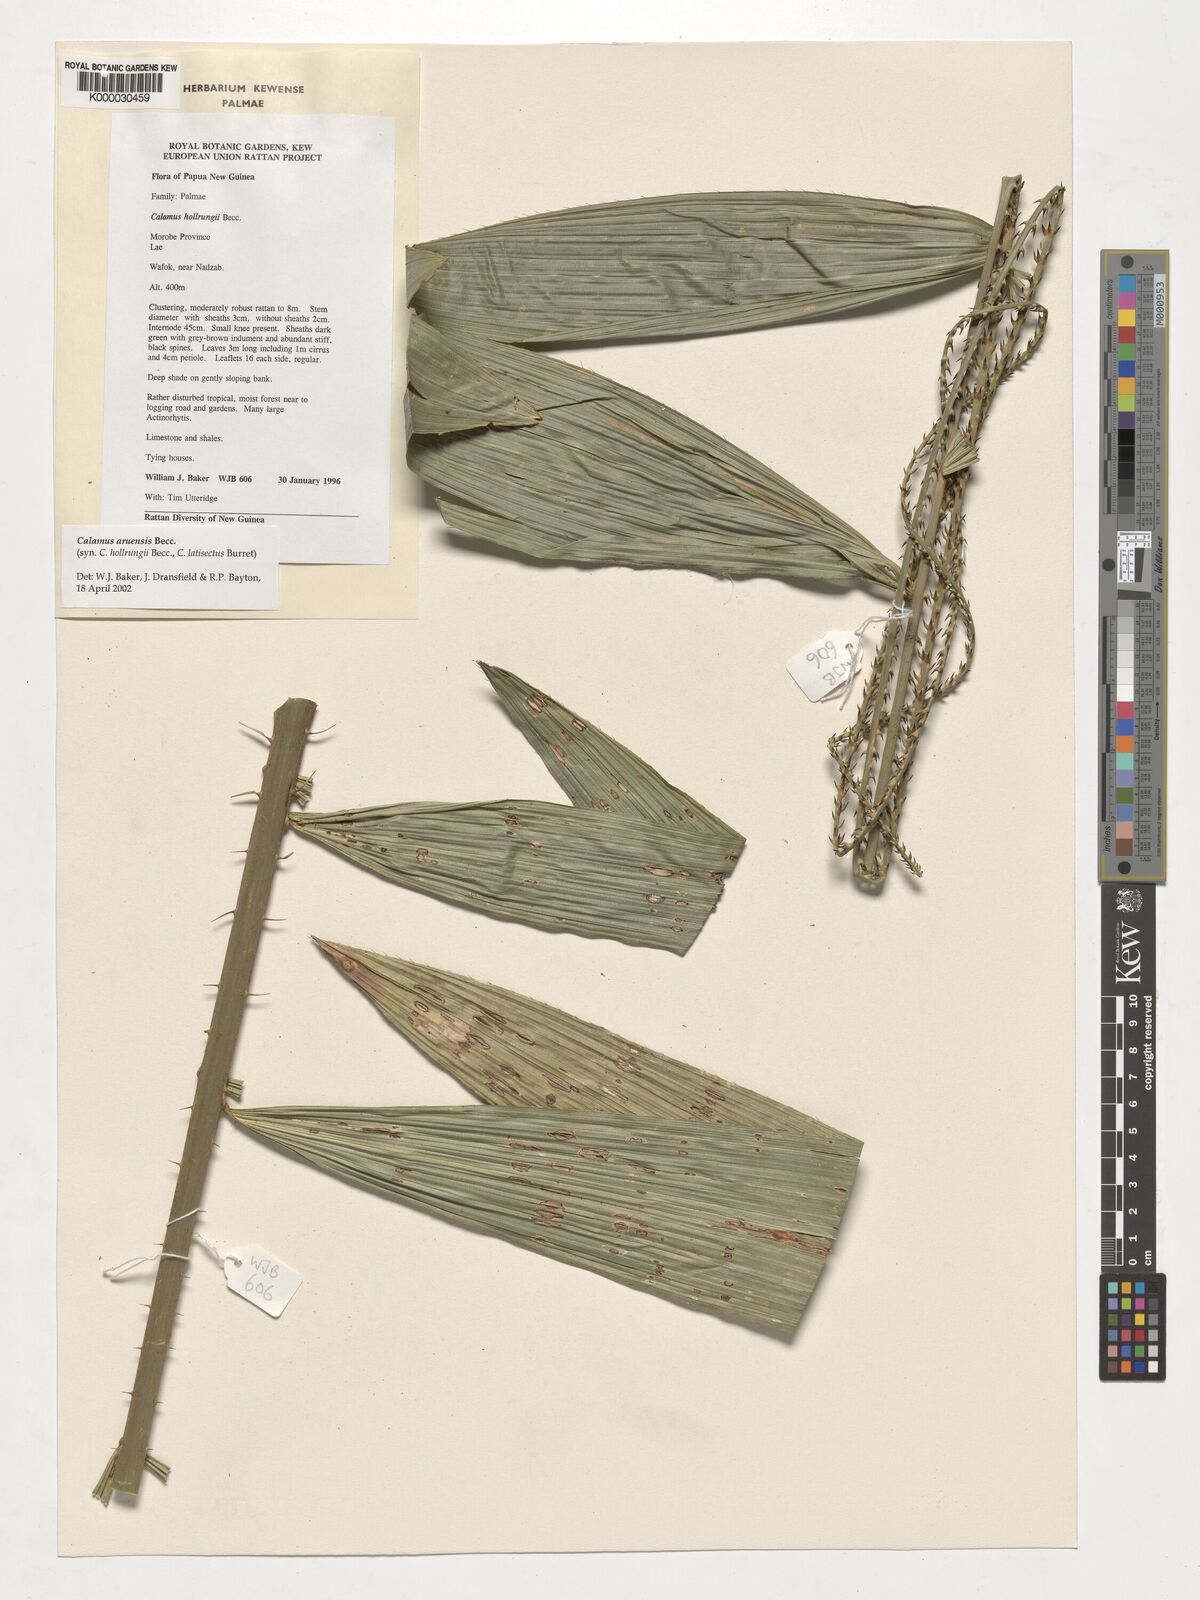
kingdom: Plantae
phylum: Tracheophyta
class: Liliopsida
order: Arecales
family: Arecaceae
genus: Calamus
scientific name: Calamus aruensis
